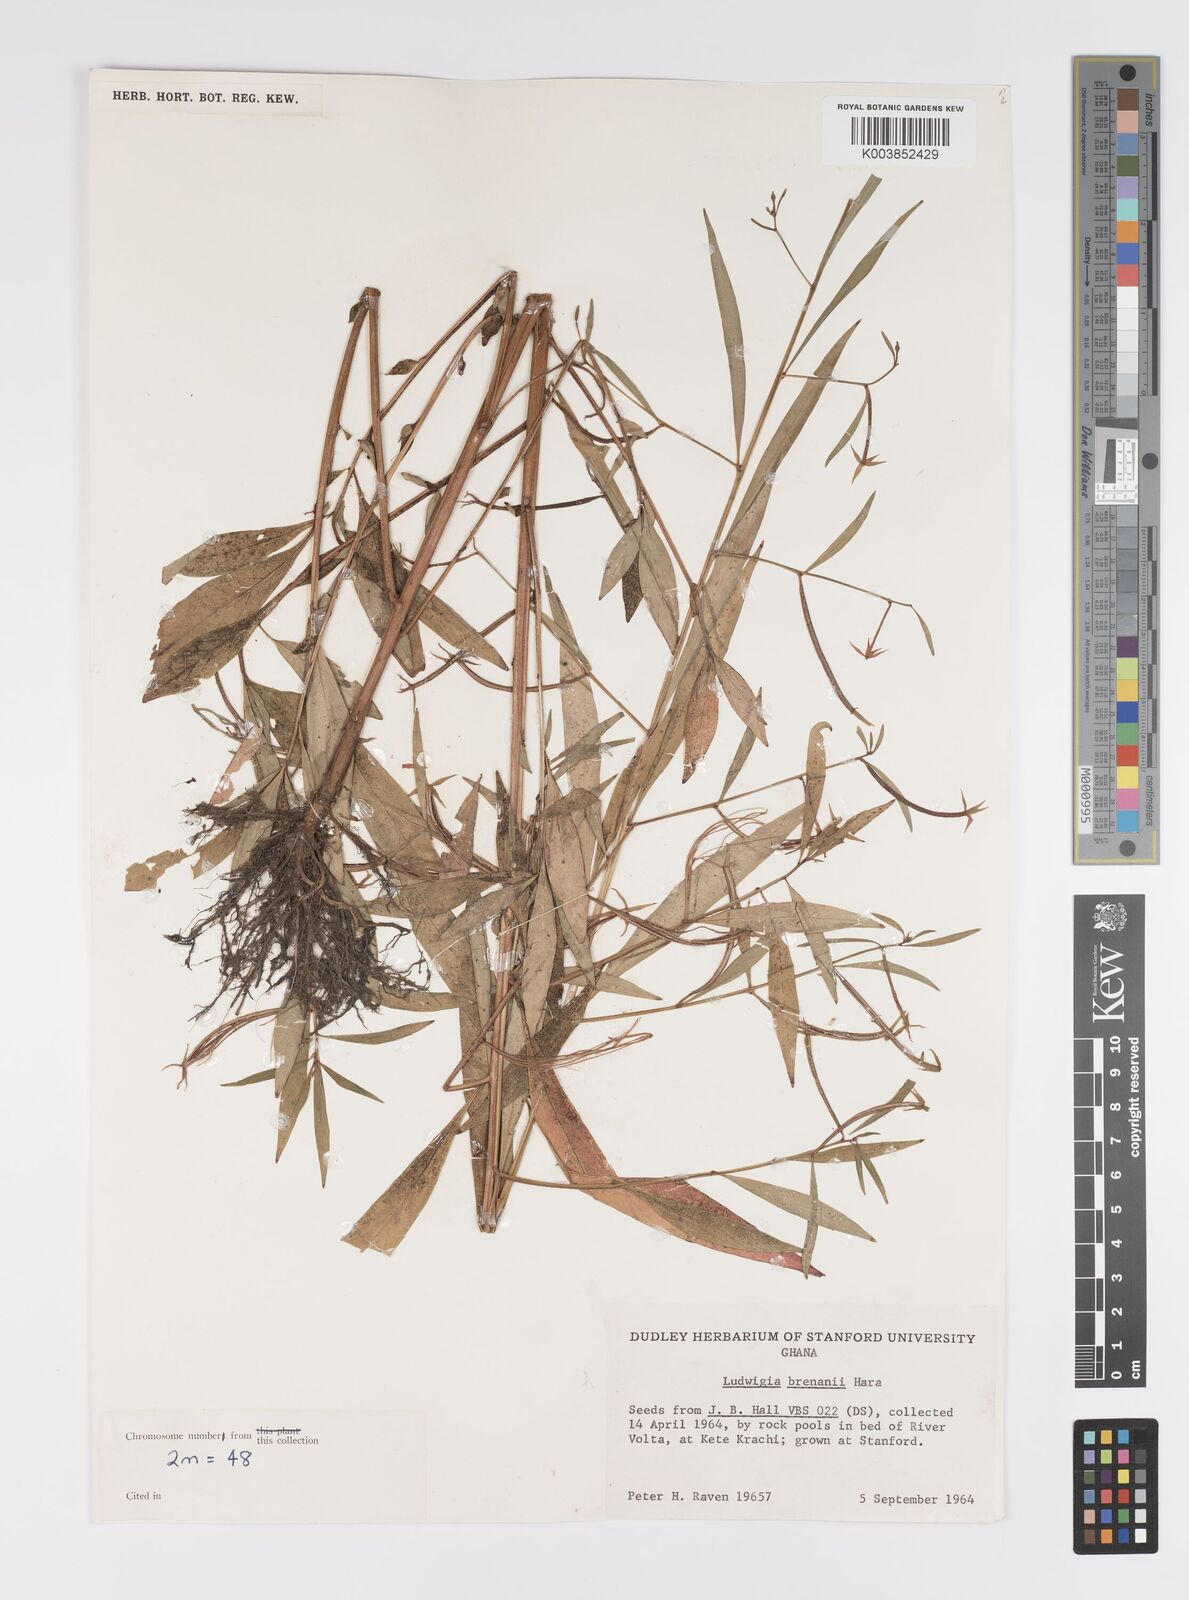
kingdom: Plantae
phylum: Tracheophyta
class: Magnoliopsida
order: Myrtales
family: Onagraceae
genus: Ludwigia
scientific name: Ludwigia brenanii
